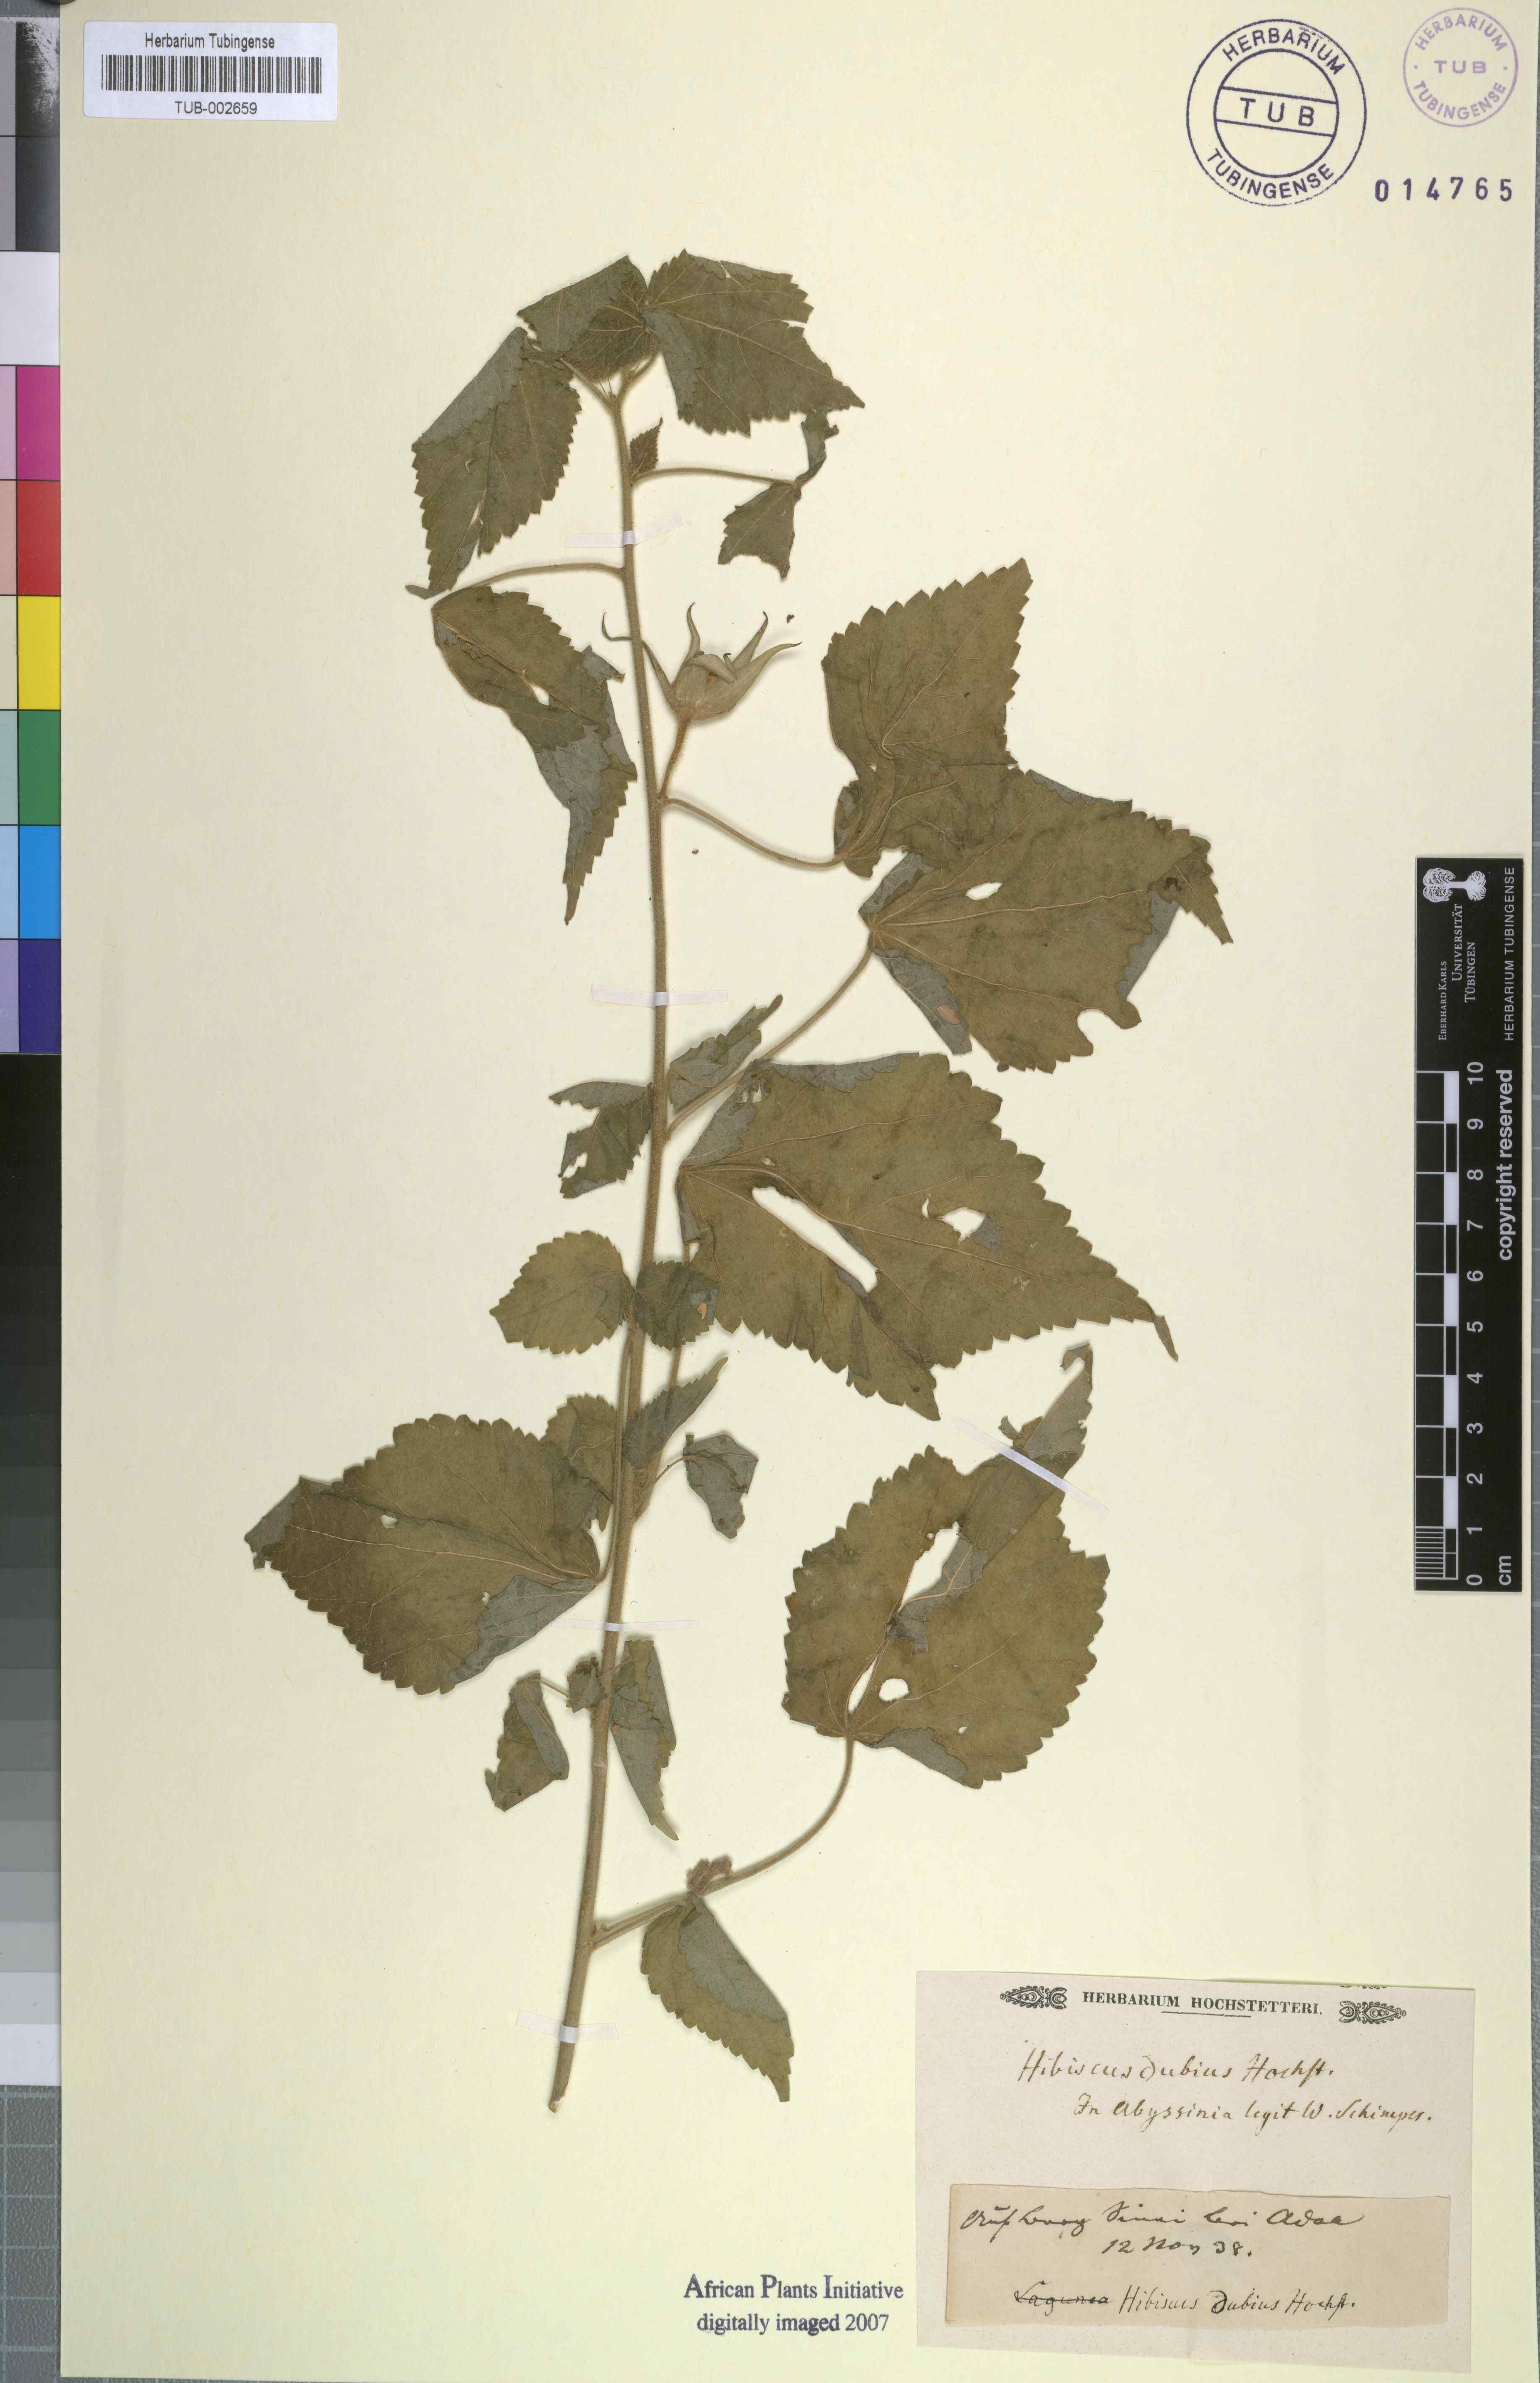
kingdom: Plantae
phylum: Tracheophyta
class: Magnoliopsida
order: Malvales
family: Malvaceae
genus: Hibiscus
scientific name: Hibiscus
